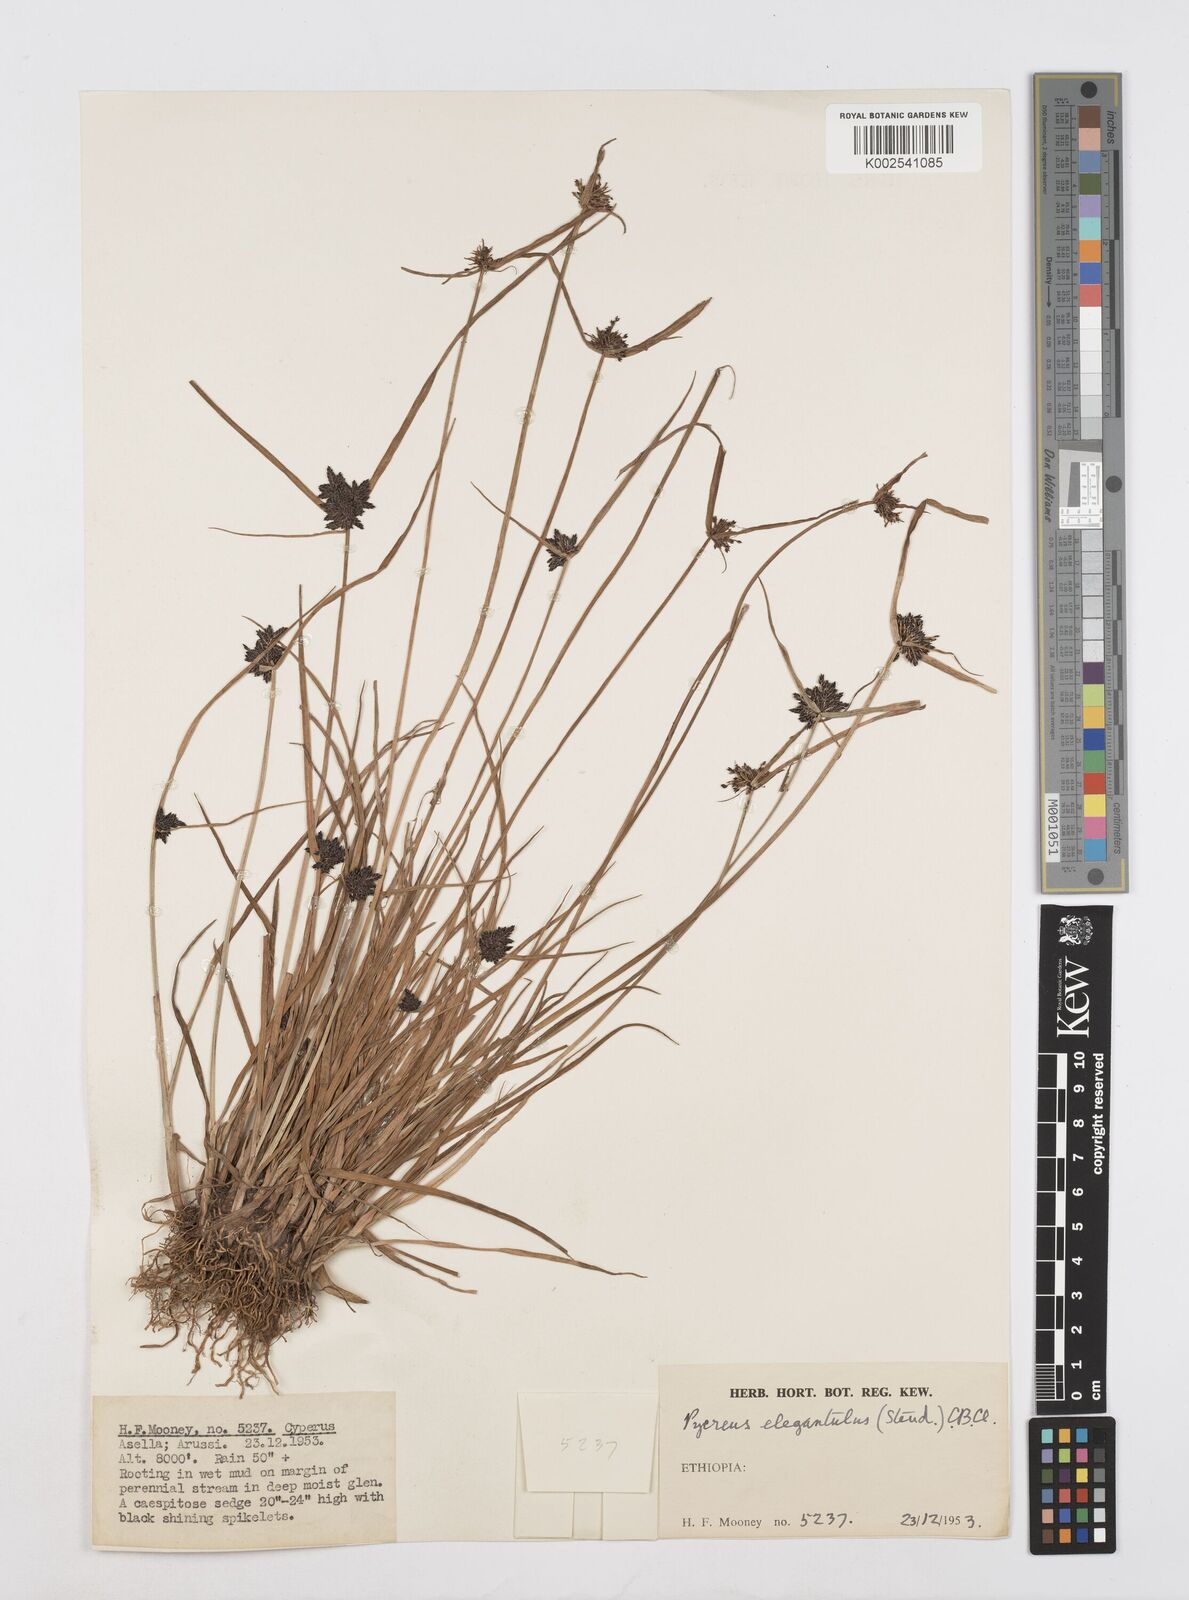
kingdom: Plantae
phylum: Tracheophyta
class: Liliopsida
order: Poales
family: Cyperaceae
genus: Cyperus
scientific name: Cyperus elegantulus
